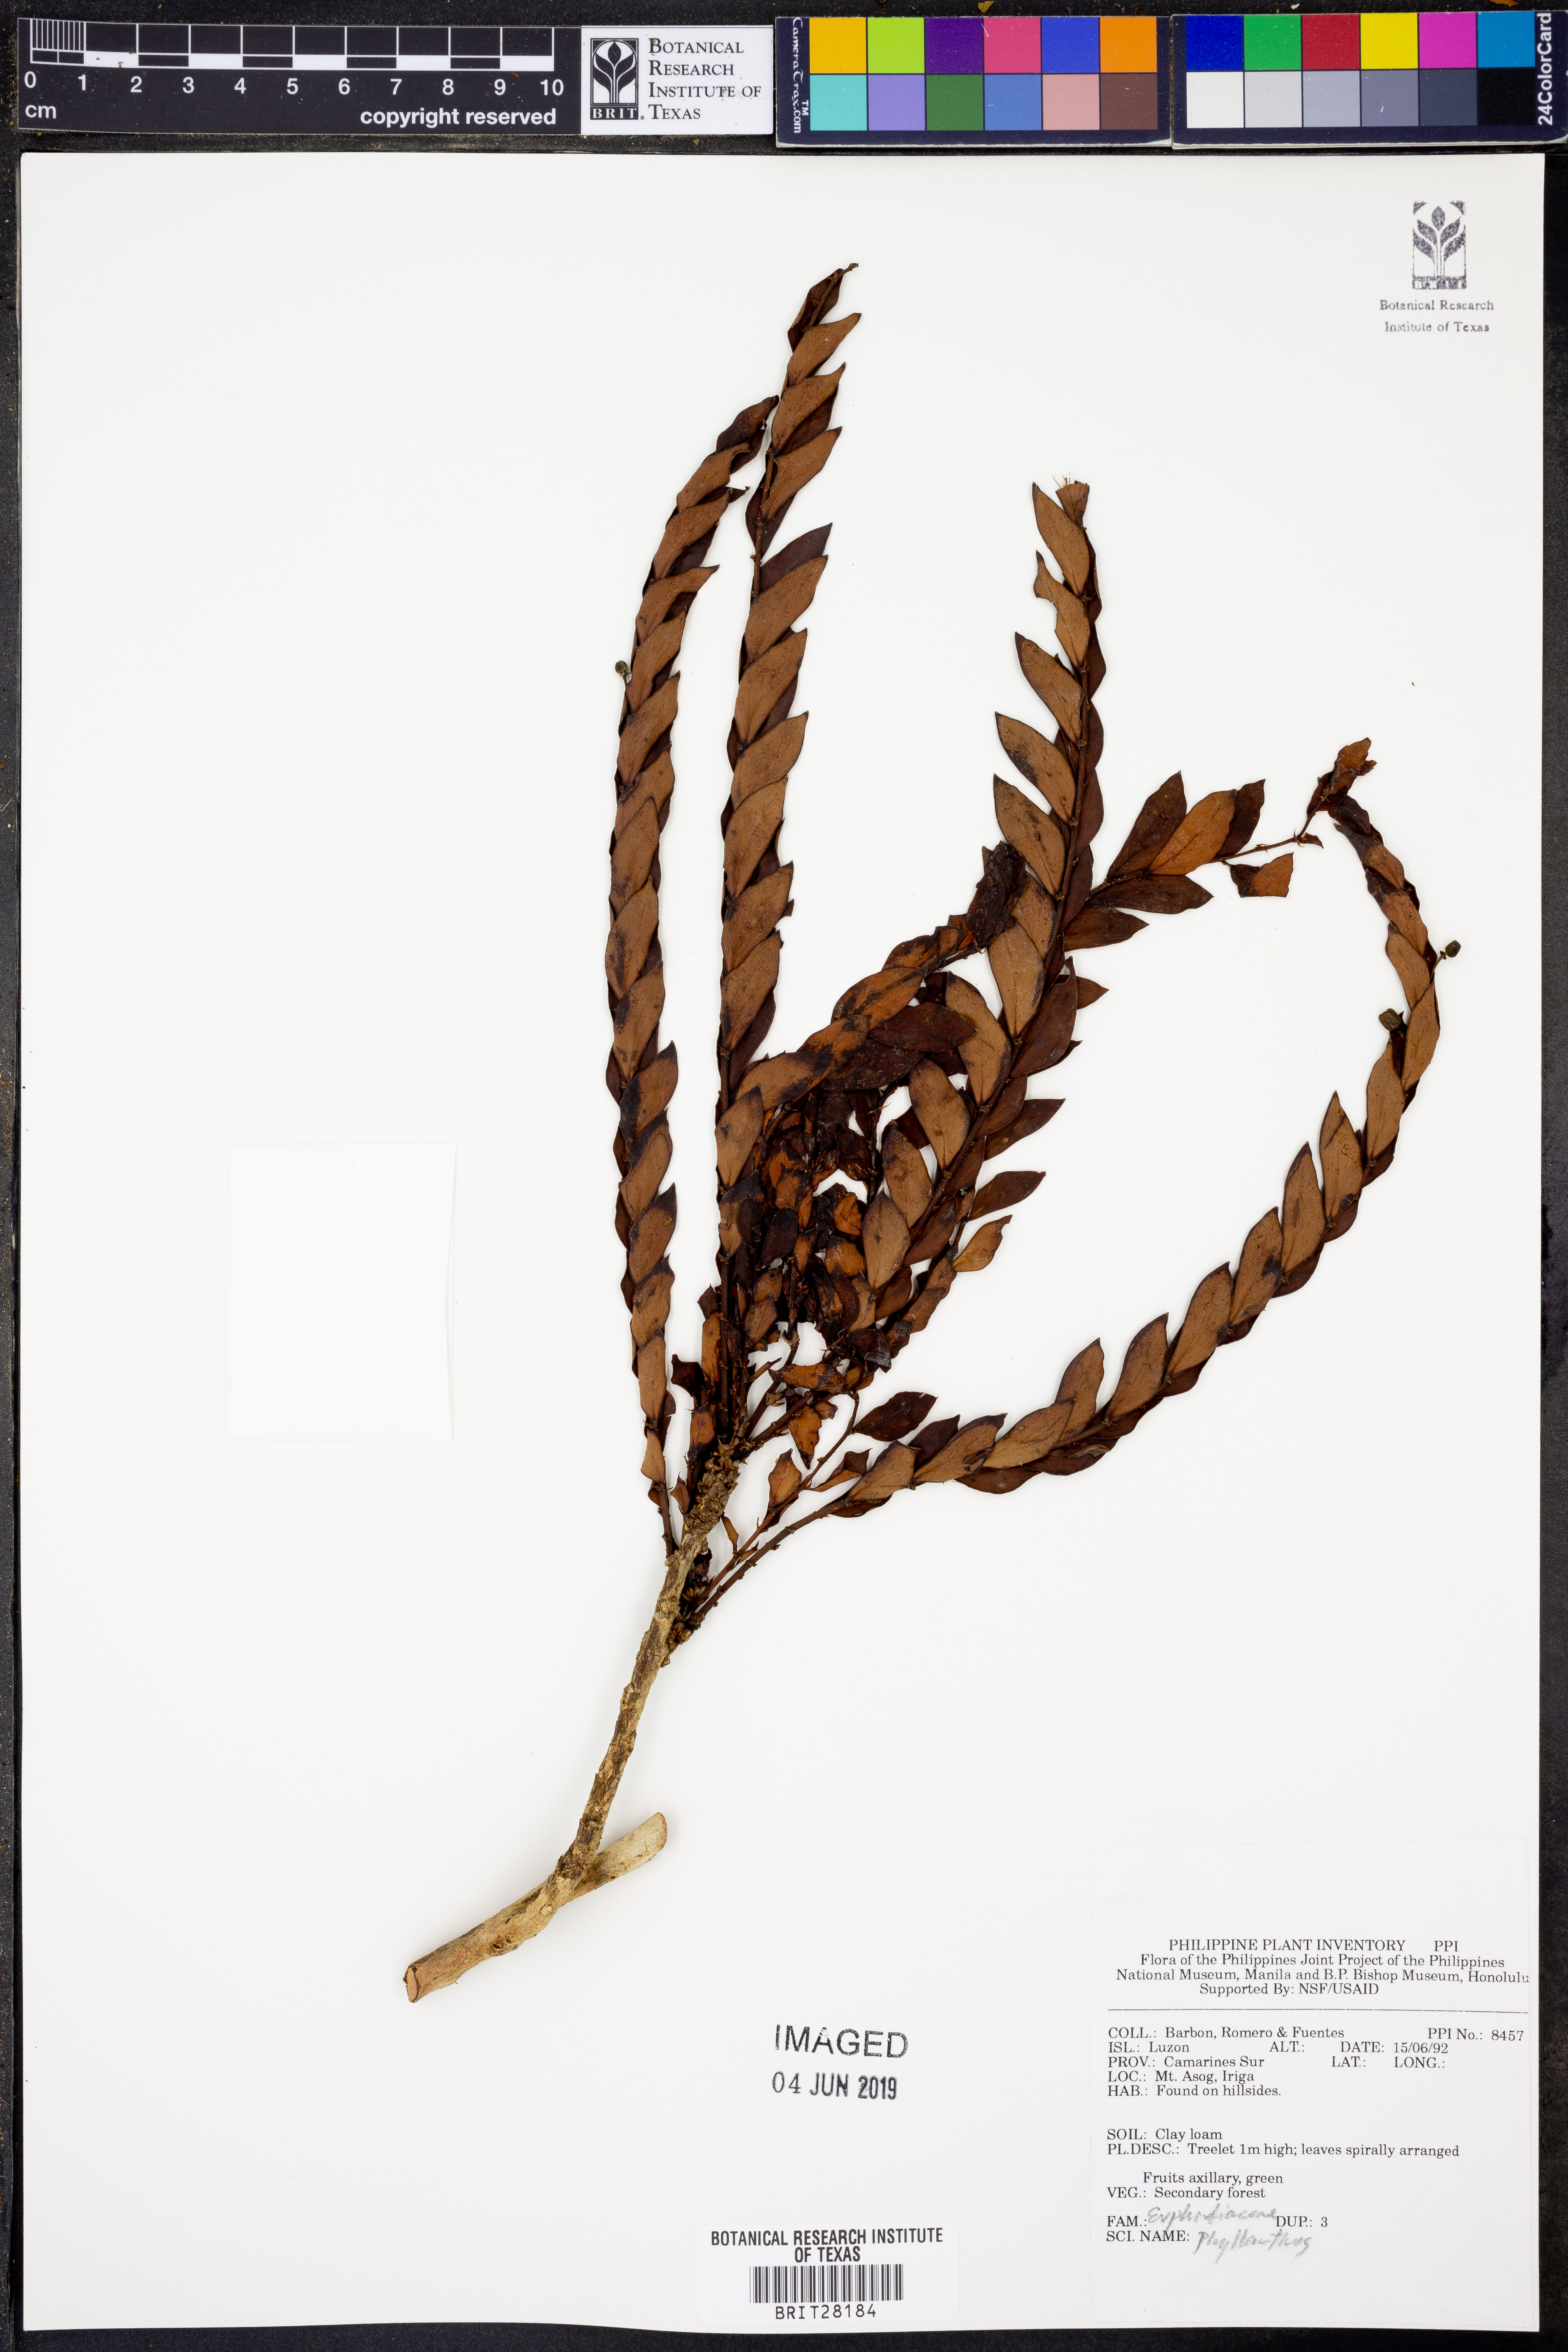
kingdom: Plantae
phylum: Tracheophyta
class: Magnoliopsida
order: Malpighiales
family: Phyllanthaceae
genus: Phyllanthus
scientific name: Phyllanthus
